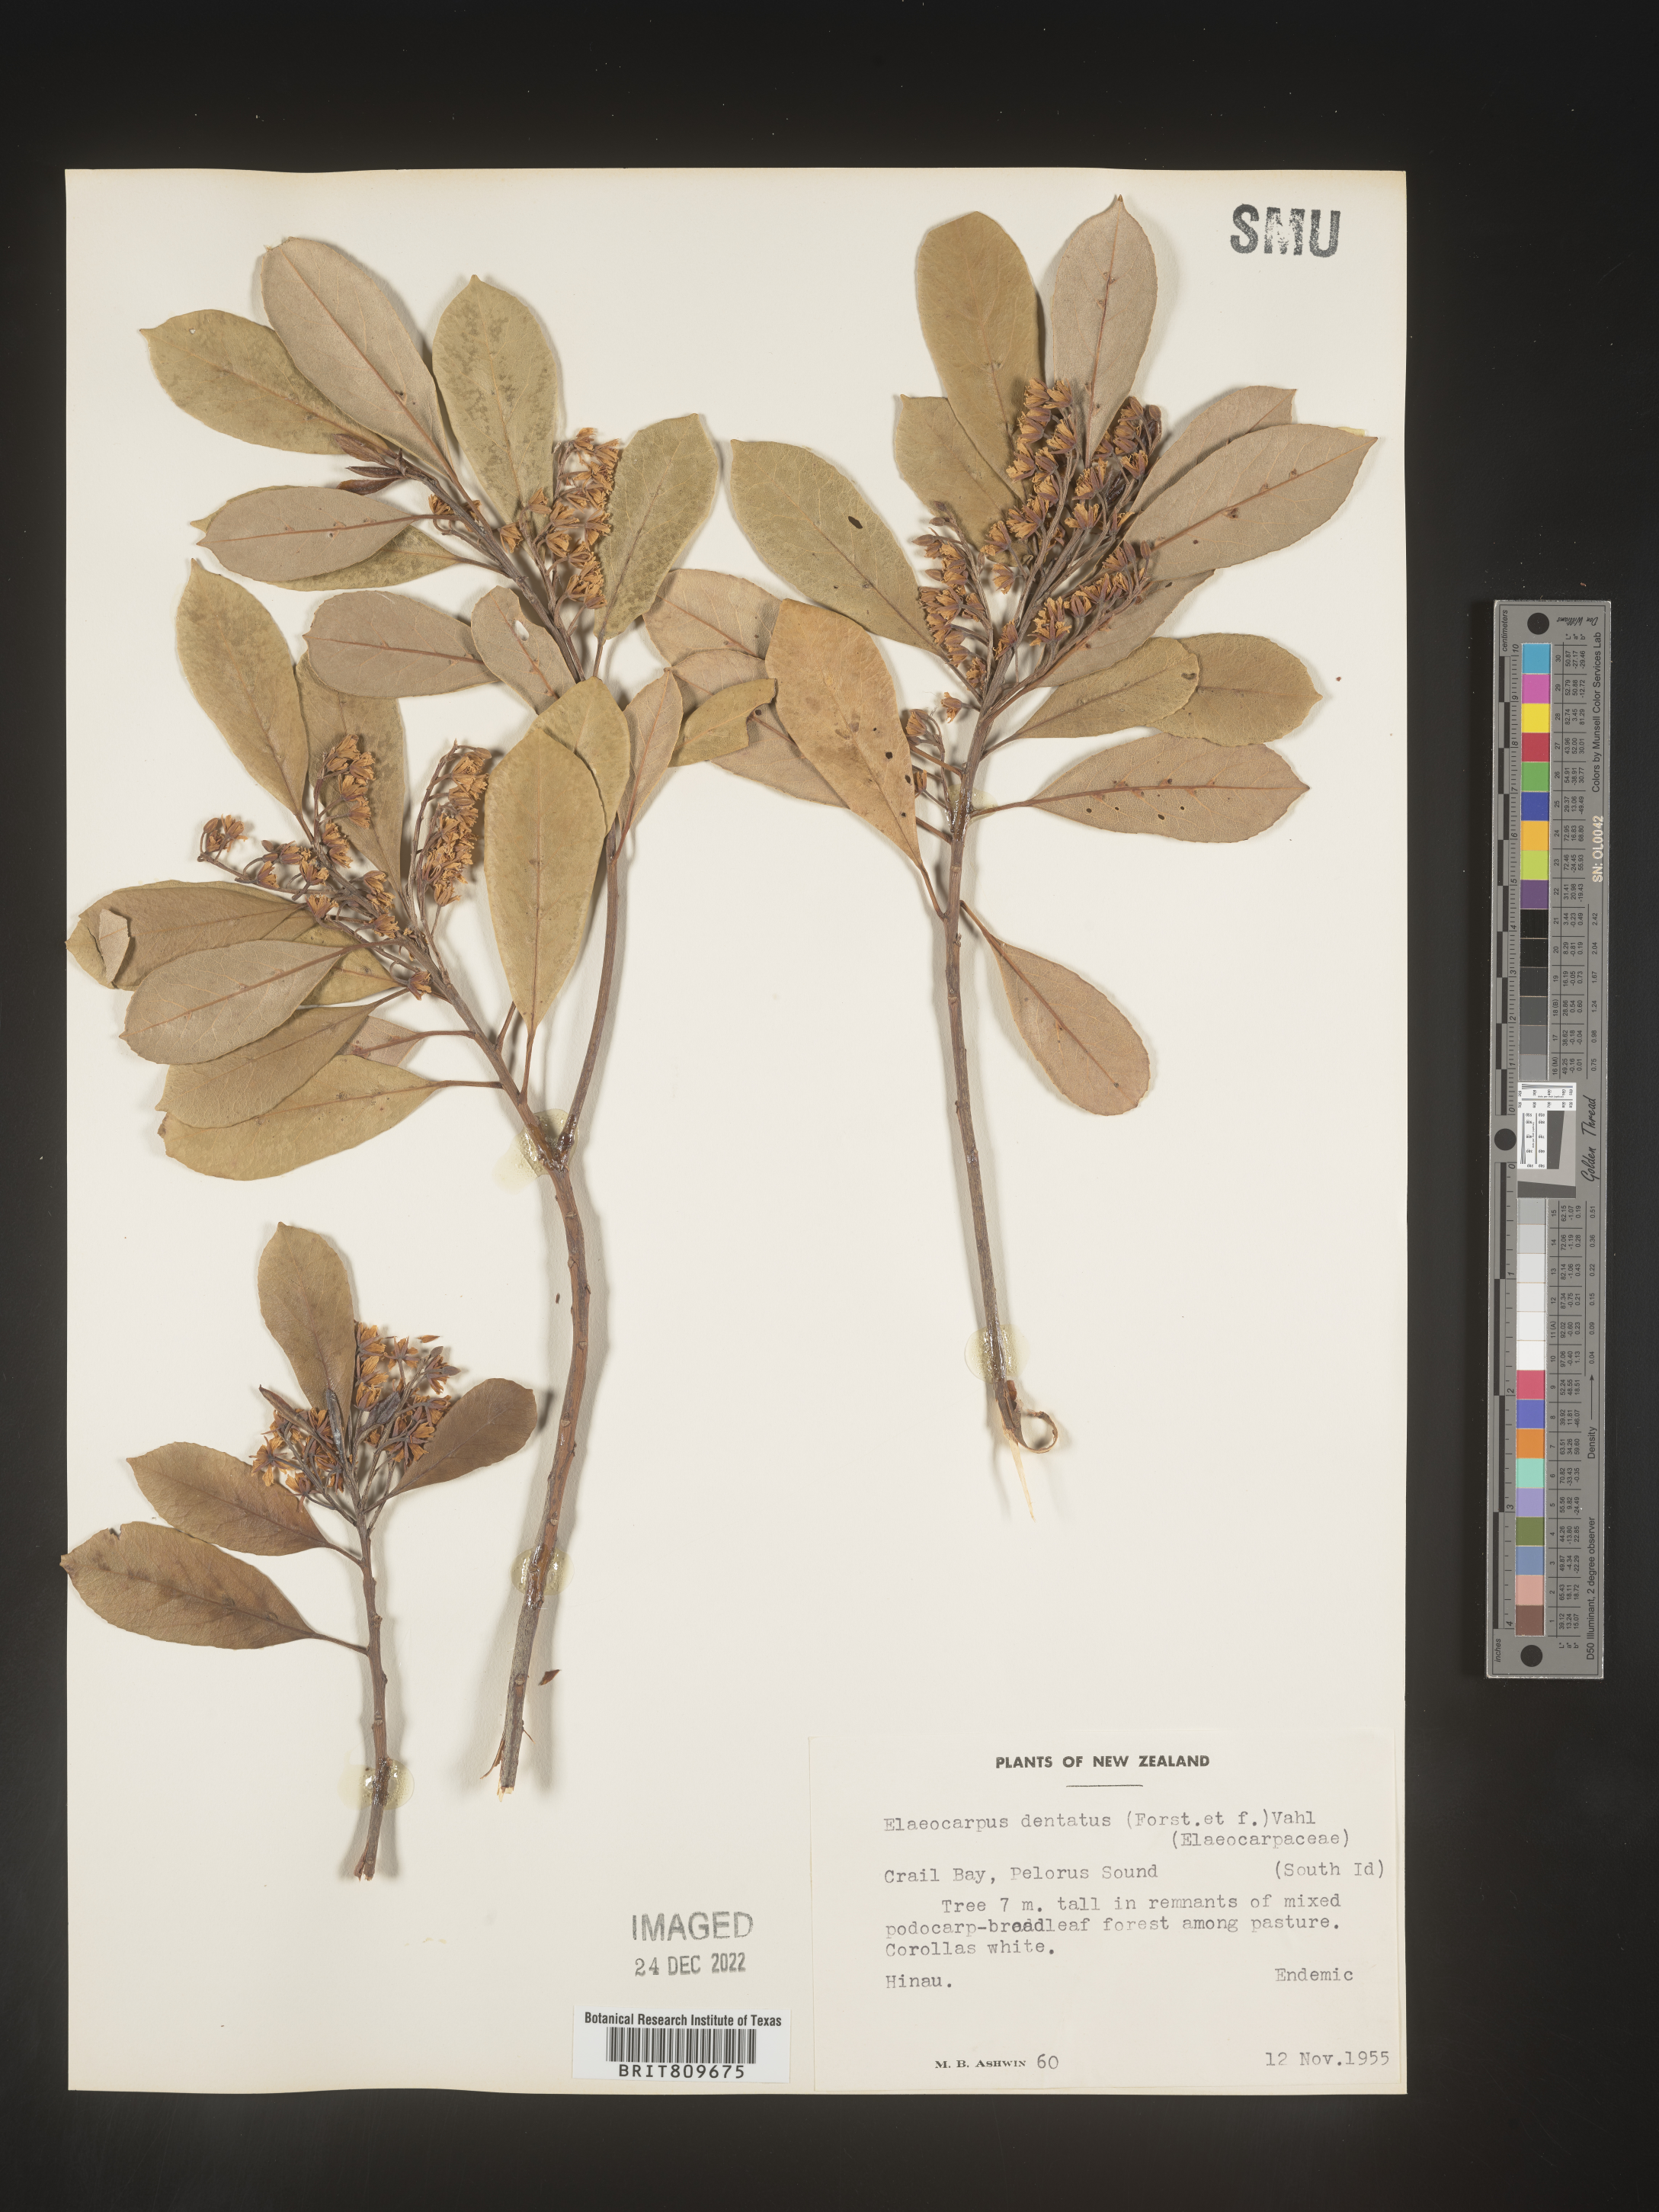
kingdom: Plantae
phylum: Tracheophyta
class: Magnoliopsida
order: Oxalidales
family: Elaeocarpaceae
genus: Elaeocarpus
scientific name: Elaeocarpus
